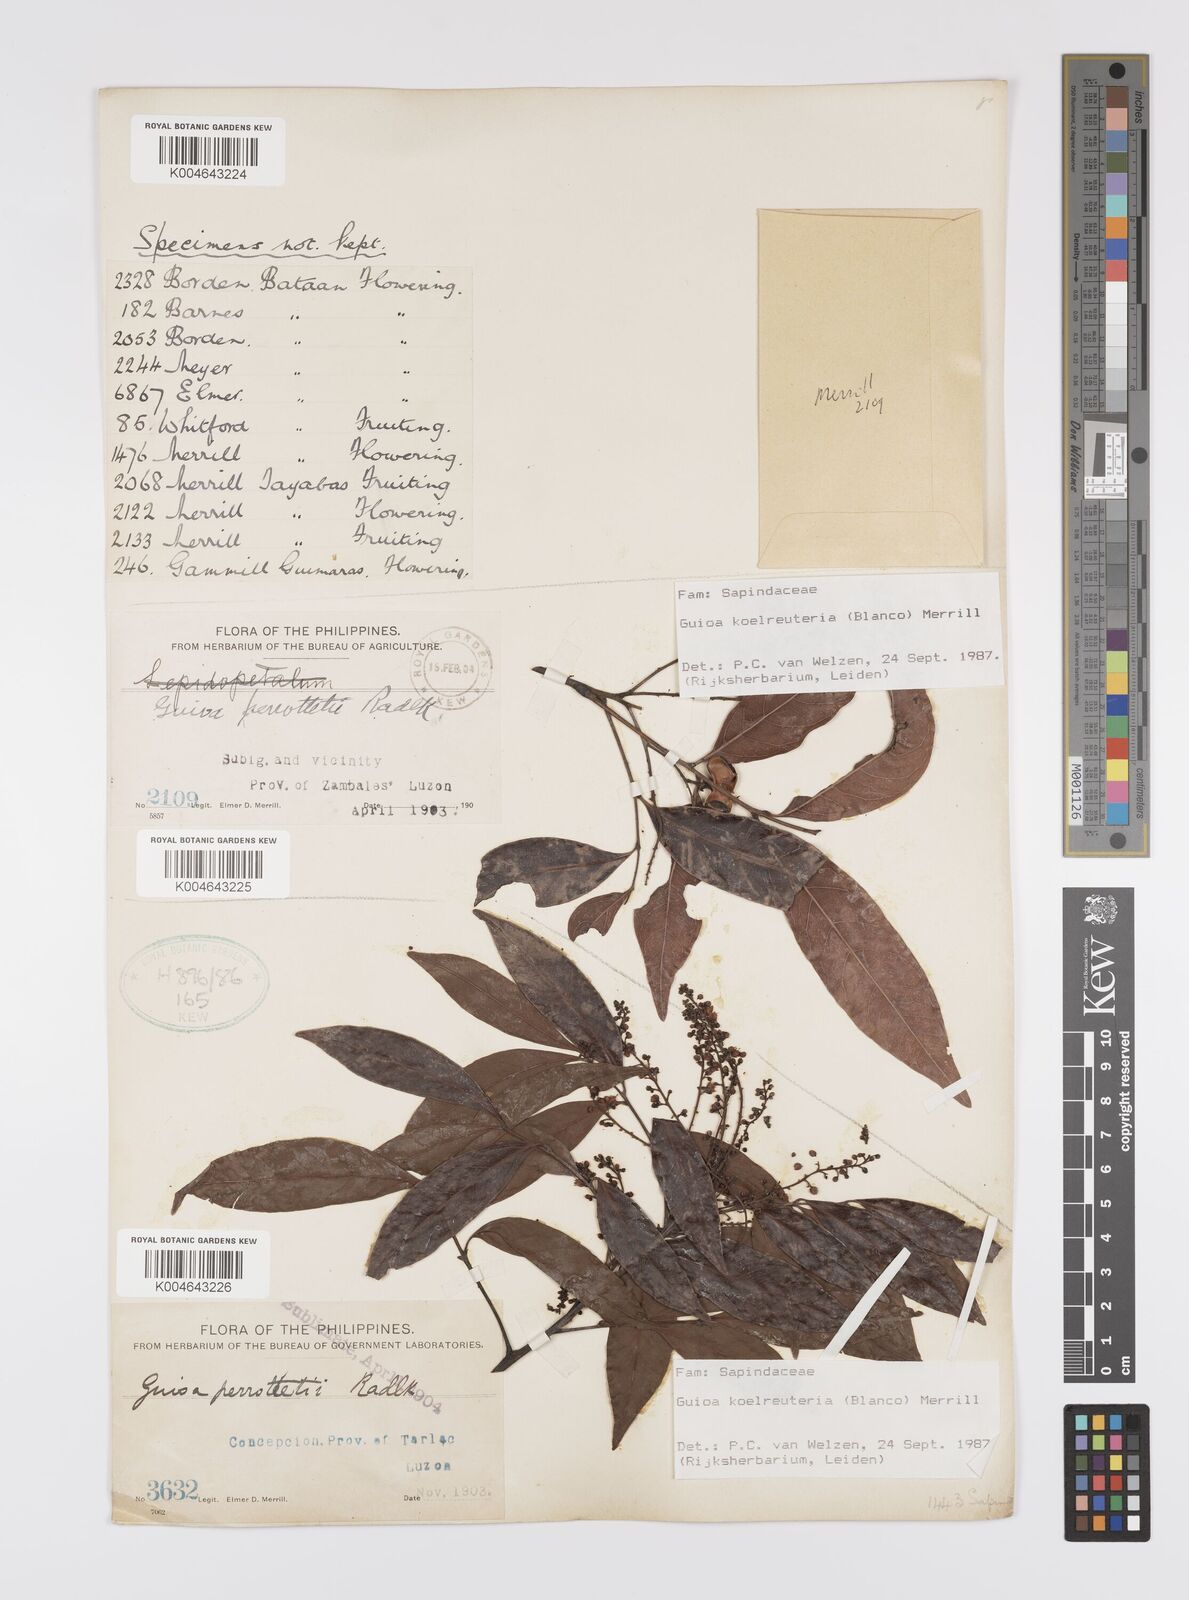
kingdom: Plantae
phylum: Tracheophyta
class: Magnoliopsida
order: Sapindales
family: Sapindaceae
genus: Guioa
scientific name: Guioa koelreuteria
